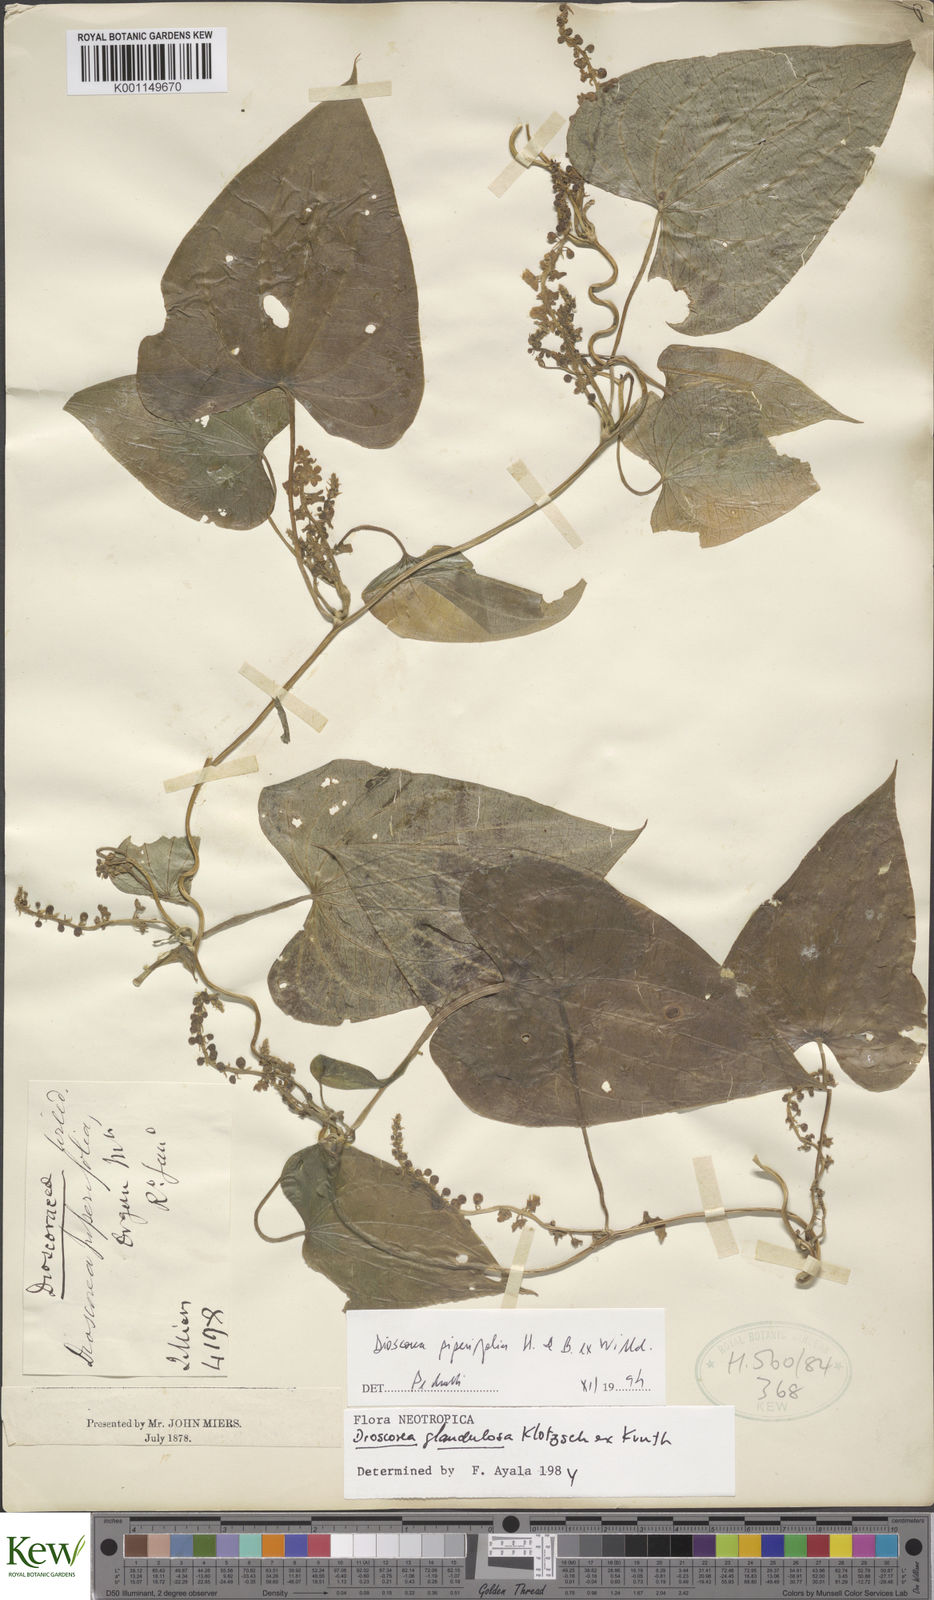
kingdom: Plantae
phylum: Tracheophyta
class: Liliopsida
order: Dioscoreales
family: Dioscoreaceae
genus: Dioscorea
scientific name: Dioscorea glandulosa
